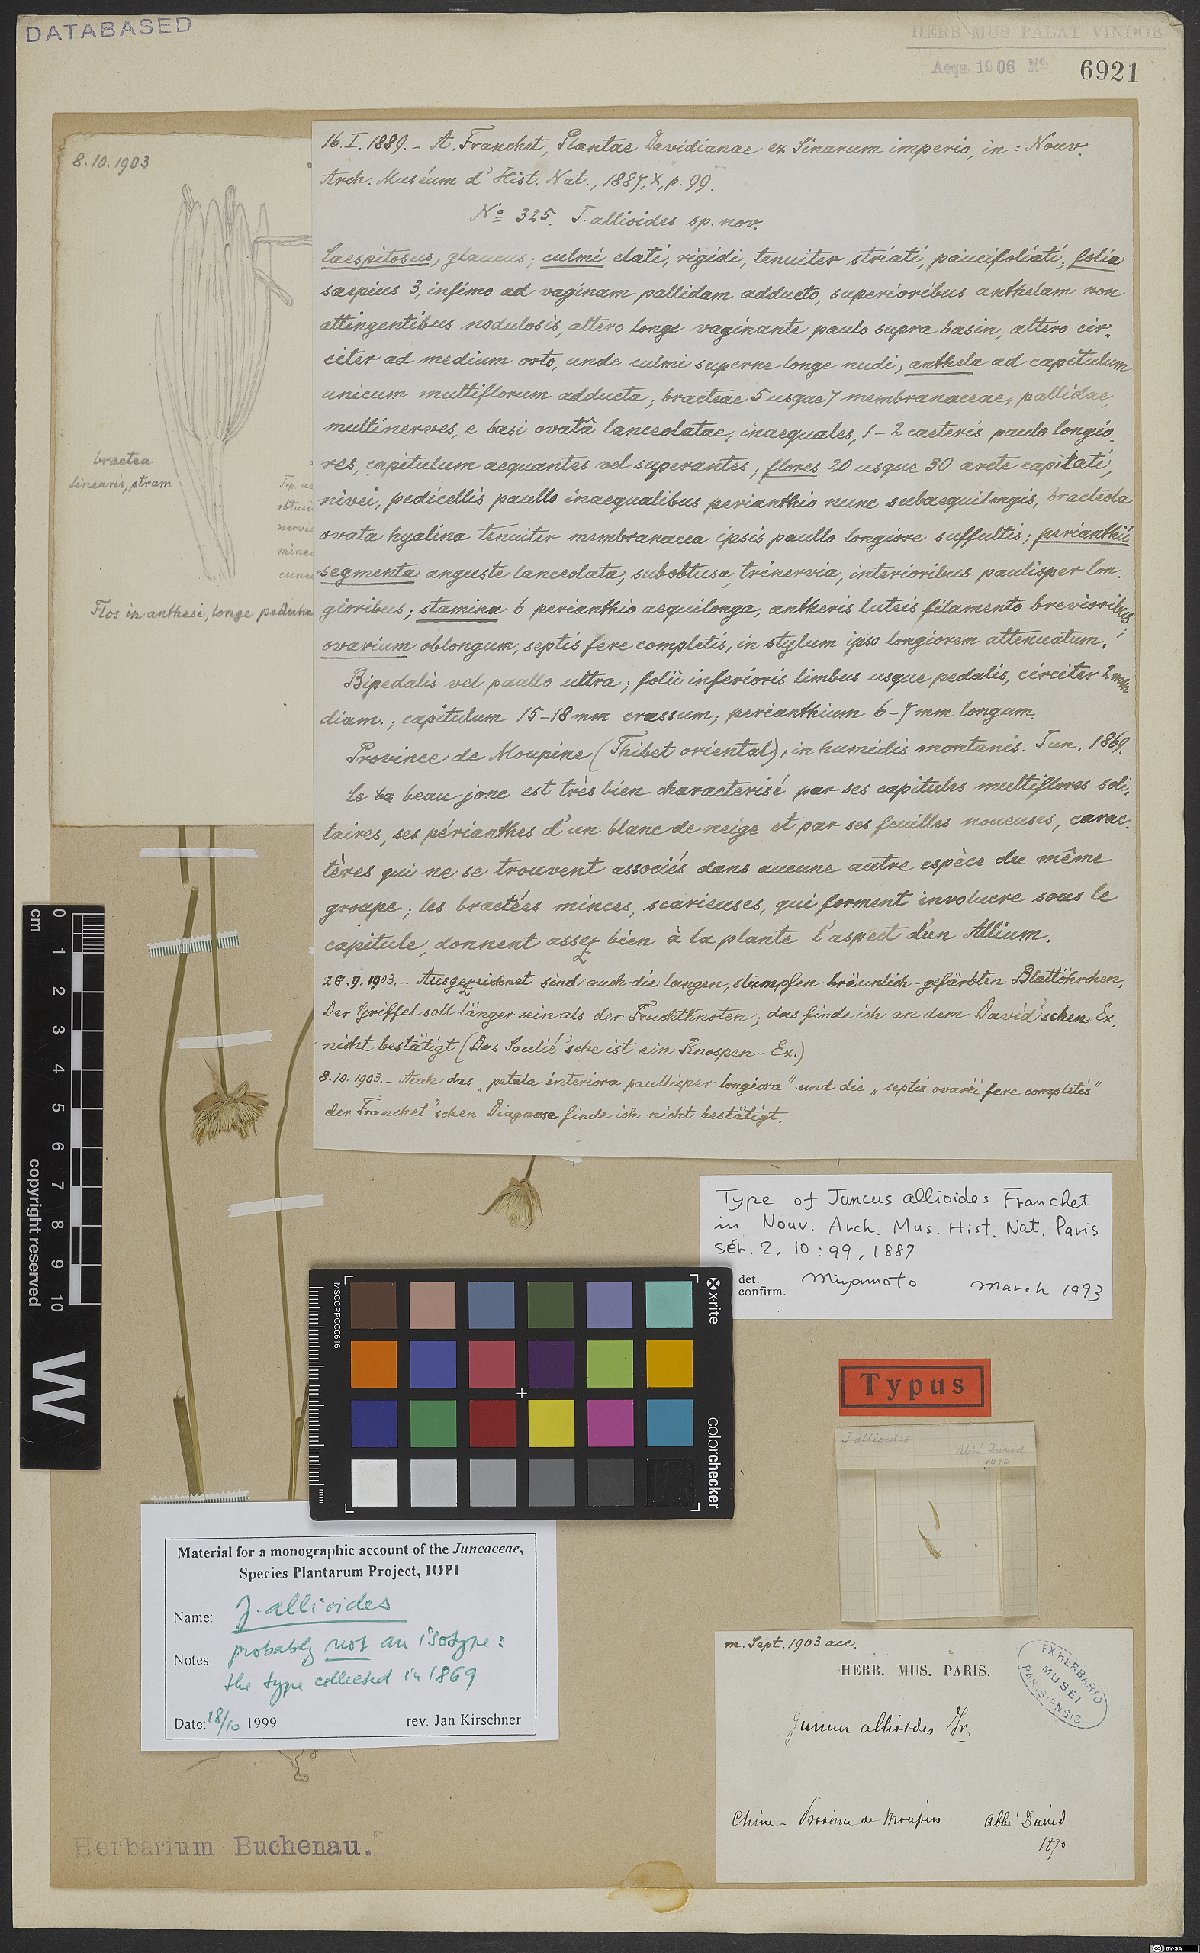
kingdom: Plantae
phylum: Tracheophyta
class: Liliopsida
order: Poales
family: Juncaceae
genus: Juncus
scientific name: Juncus allioides
